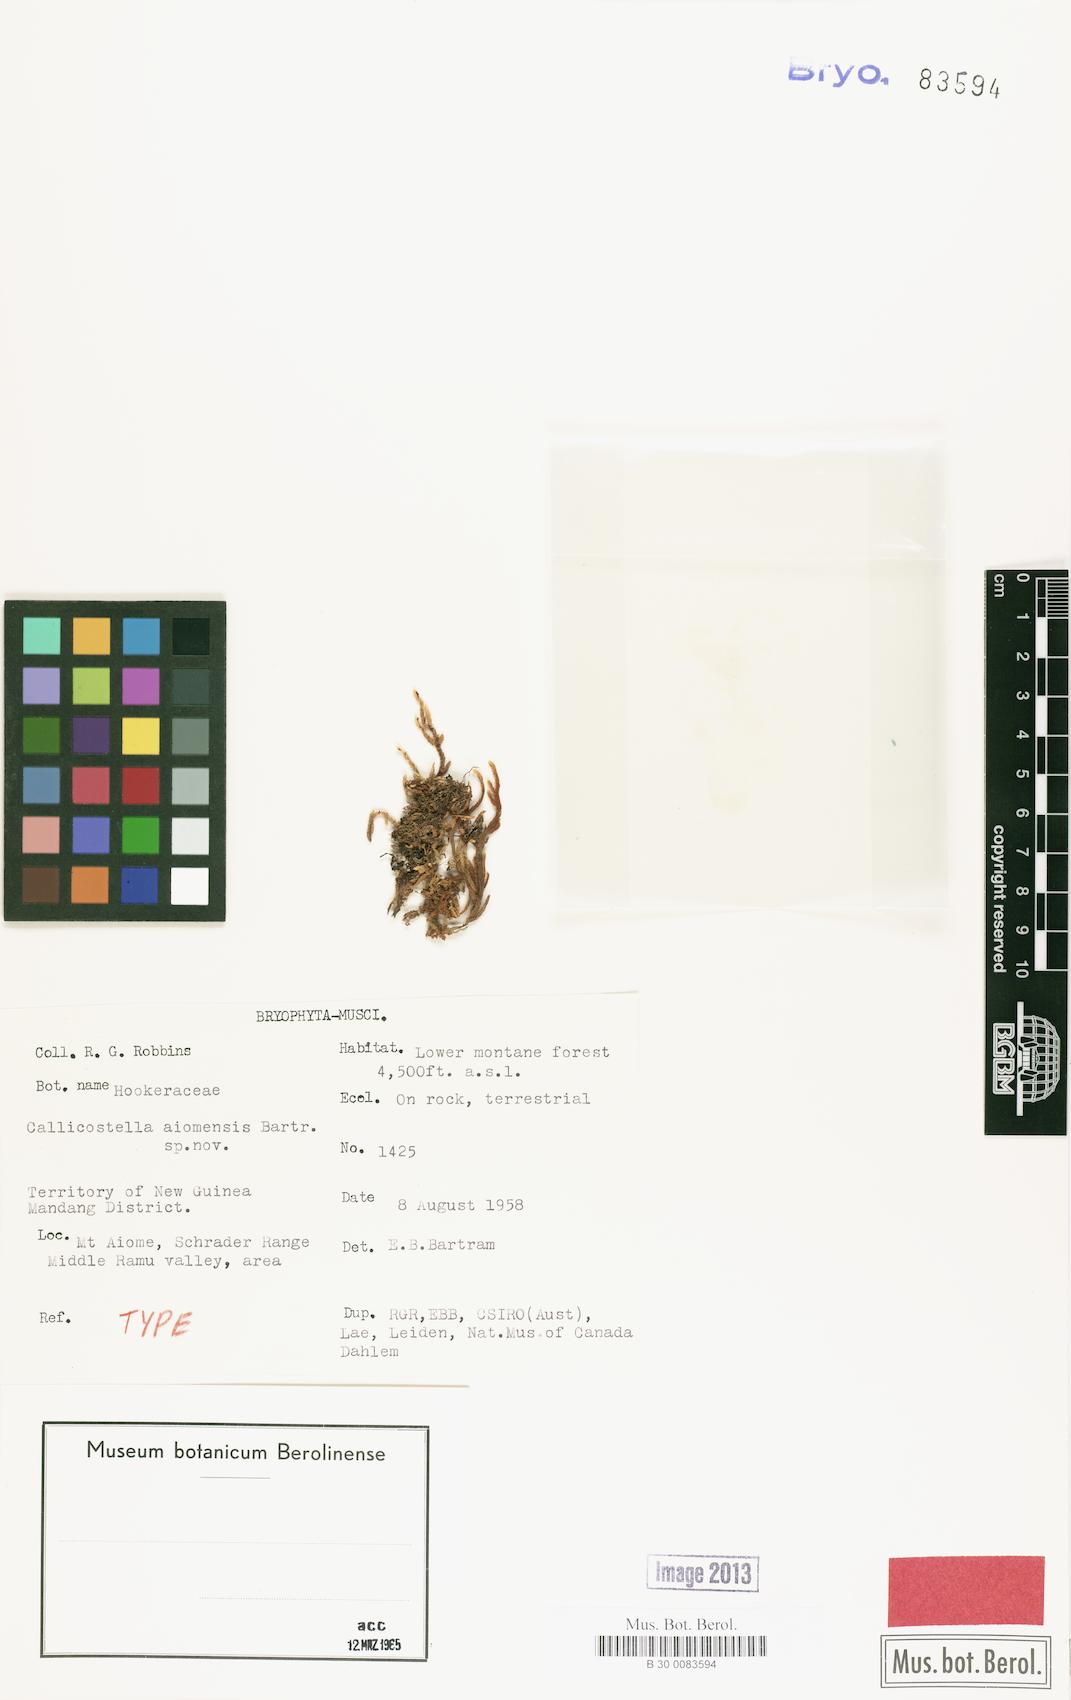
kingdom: Plantae
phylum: Bryophyta
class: Bryopsida
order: Hookeriales
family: Pilotrichaceae
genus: Callicostella
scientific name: Callicostella aiomensis
